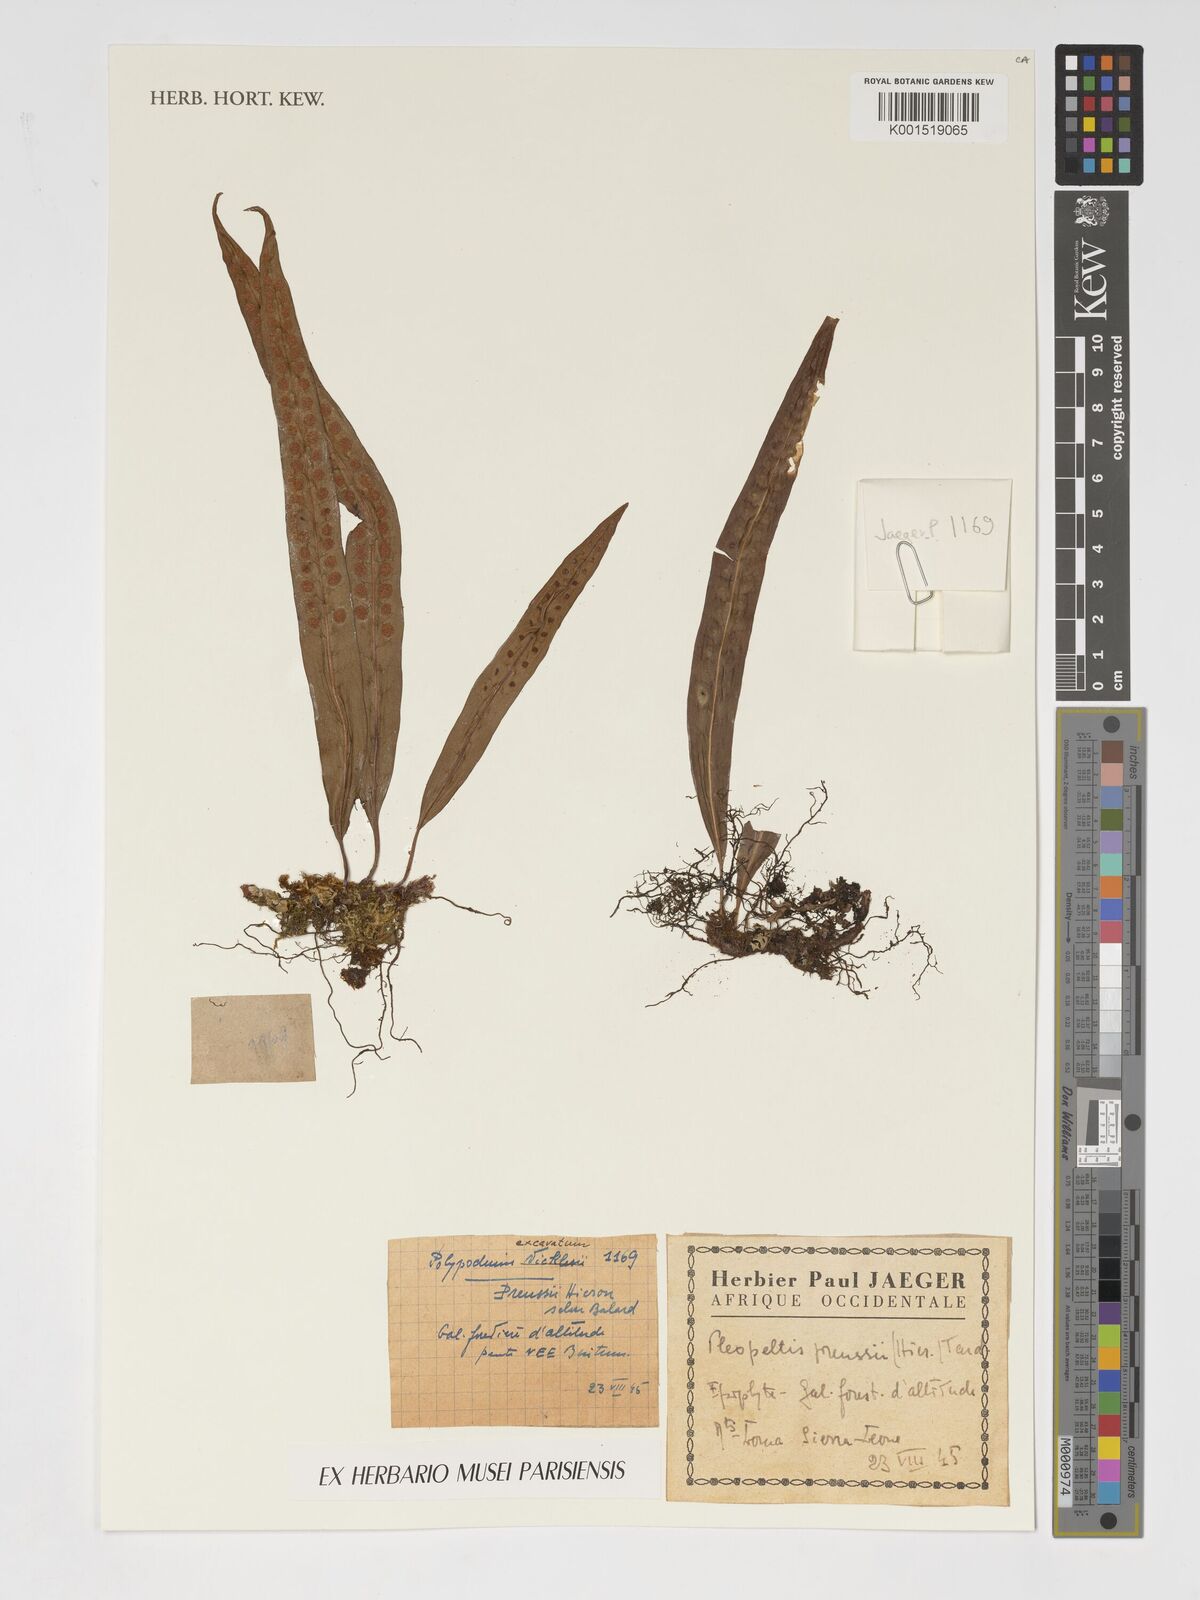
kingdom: Plantae
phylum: Tracheophyta
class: Polypodiopsida
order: Polypodiales
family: Polypodiaceae
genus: Lepisorus
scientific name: Lepisorus excavatus
